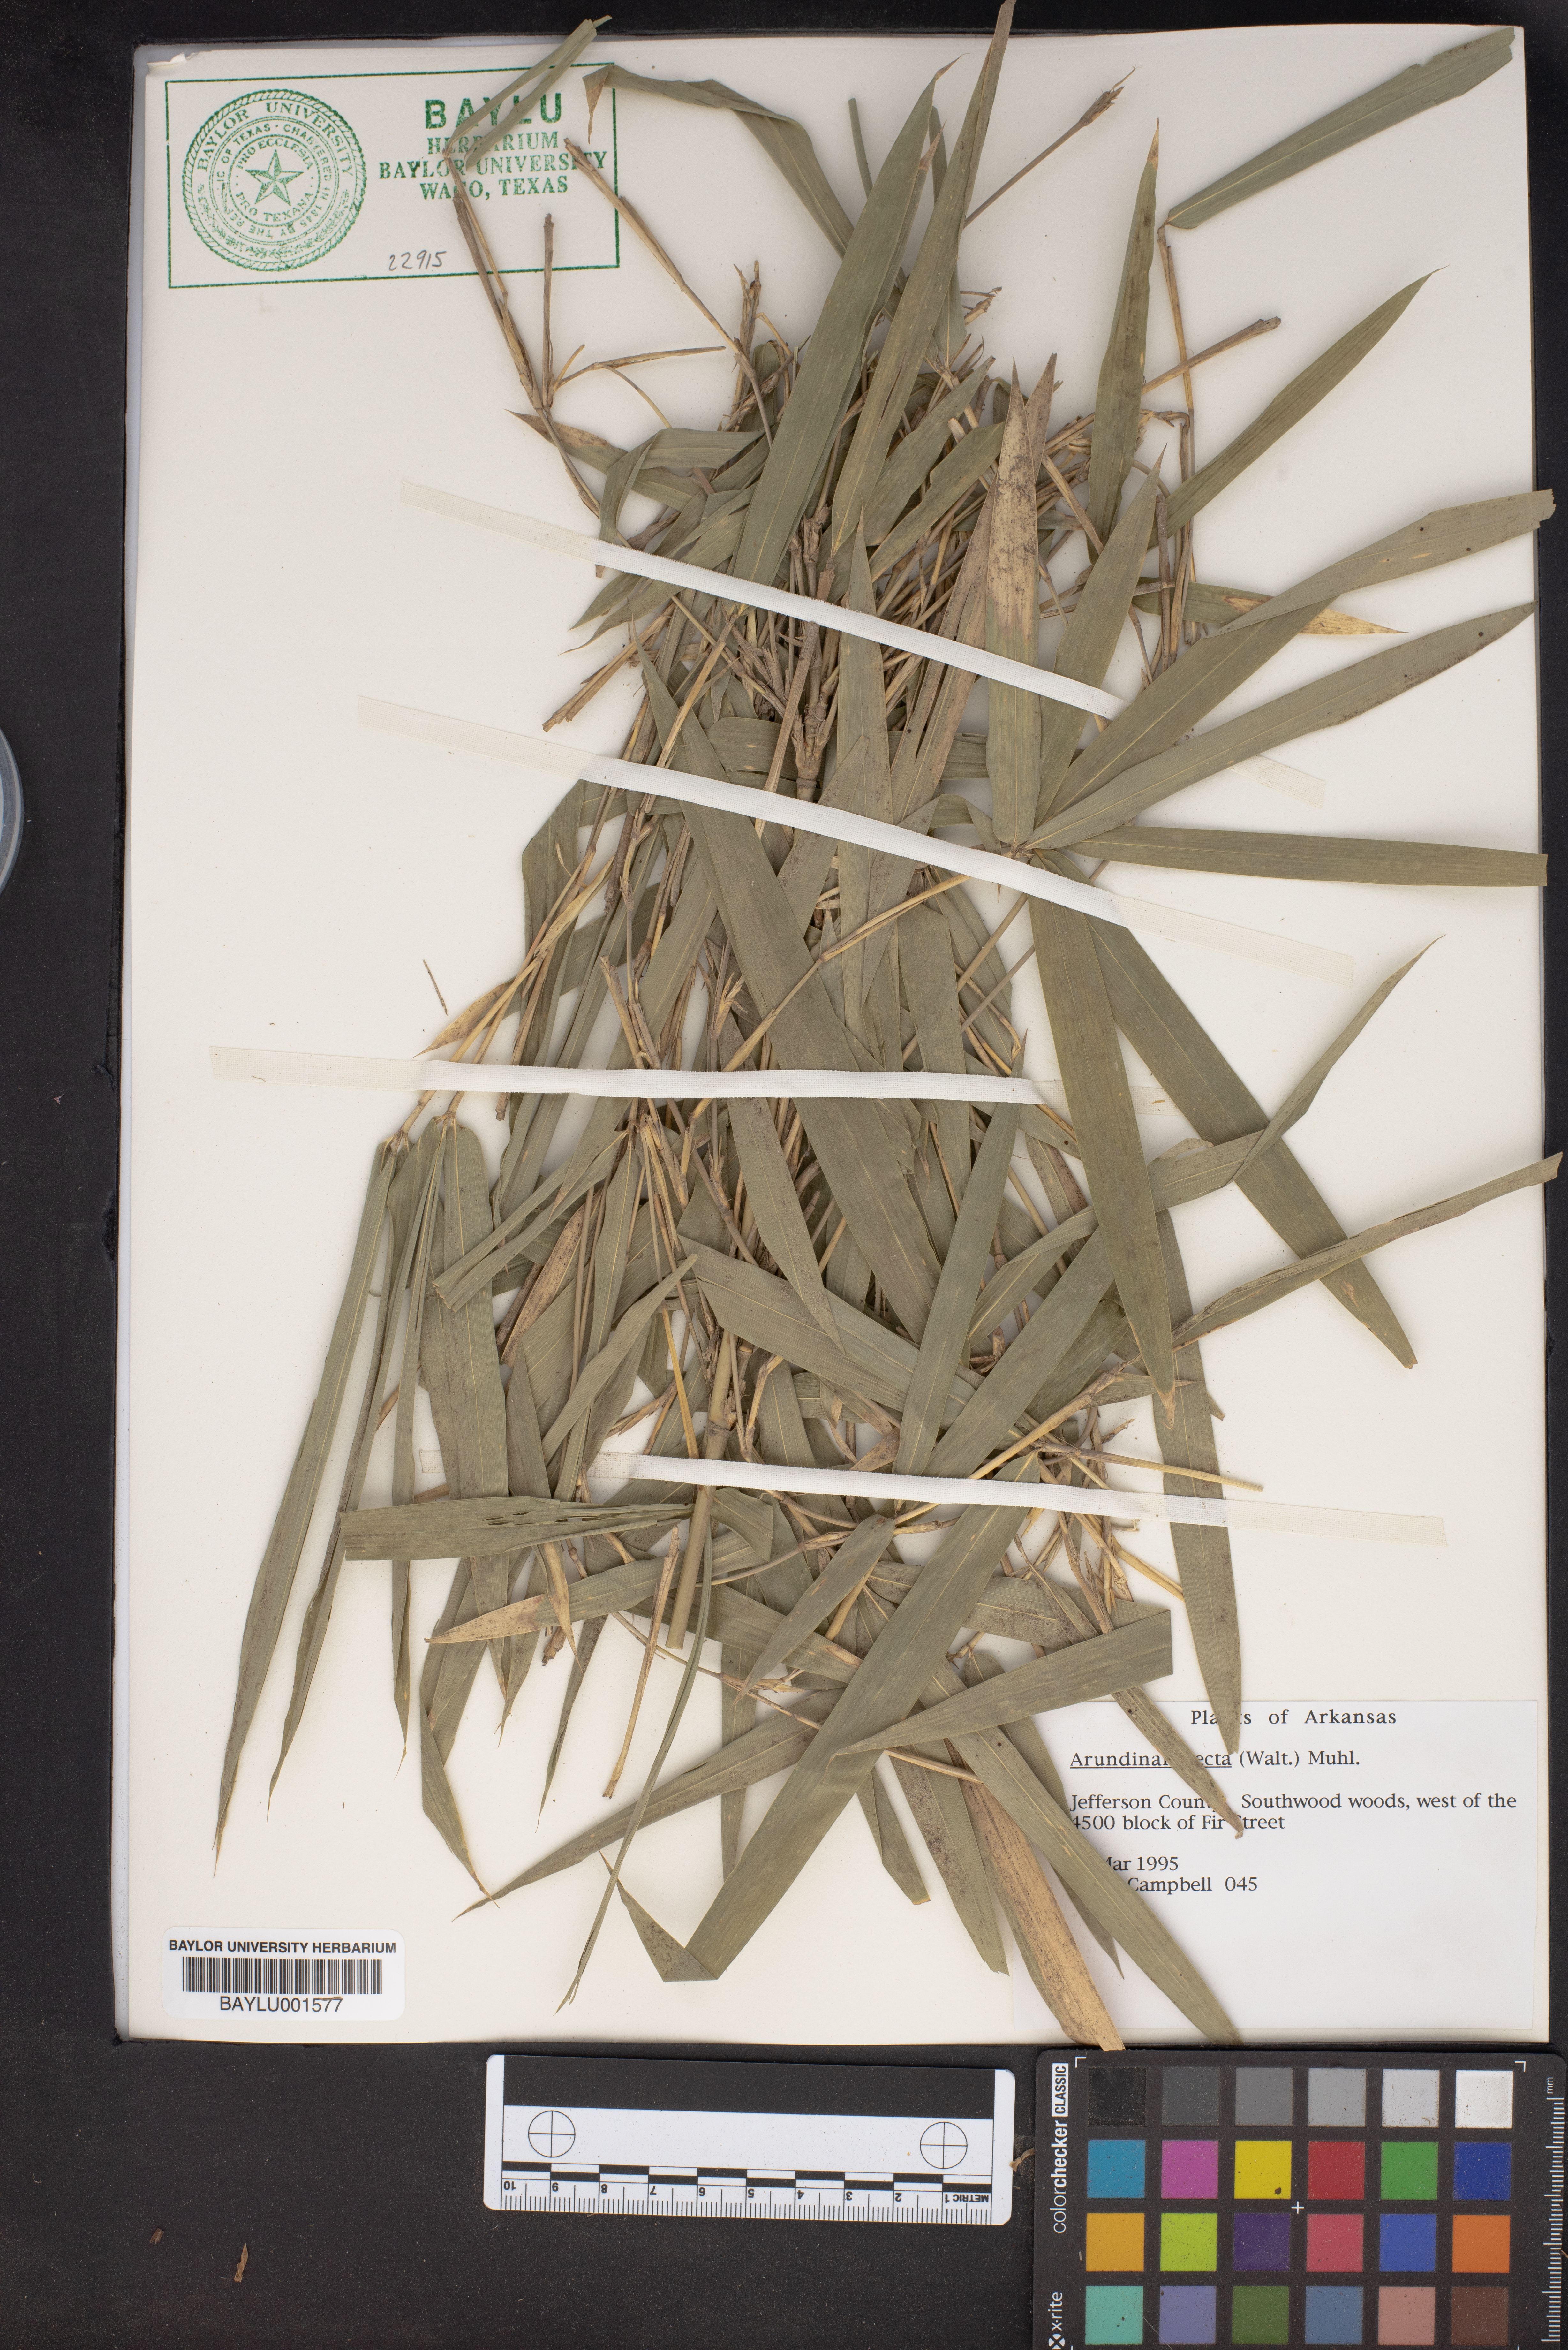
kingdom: Plantae
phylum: Tracheophyta
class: Liliopsida
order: Poales
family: Poaceae
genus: Arundinaria
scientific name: Arundinaria tecta
